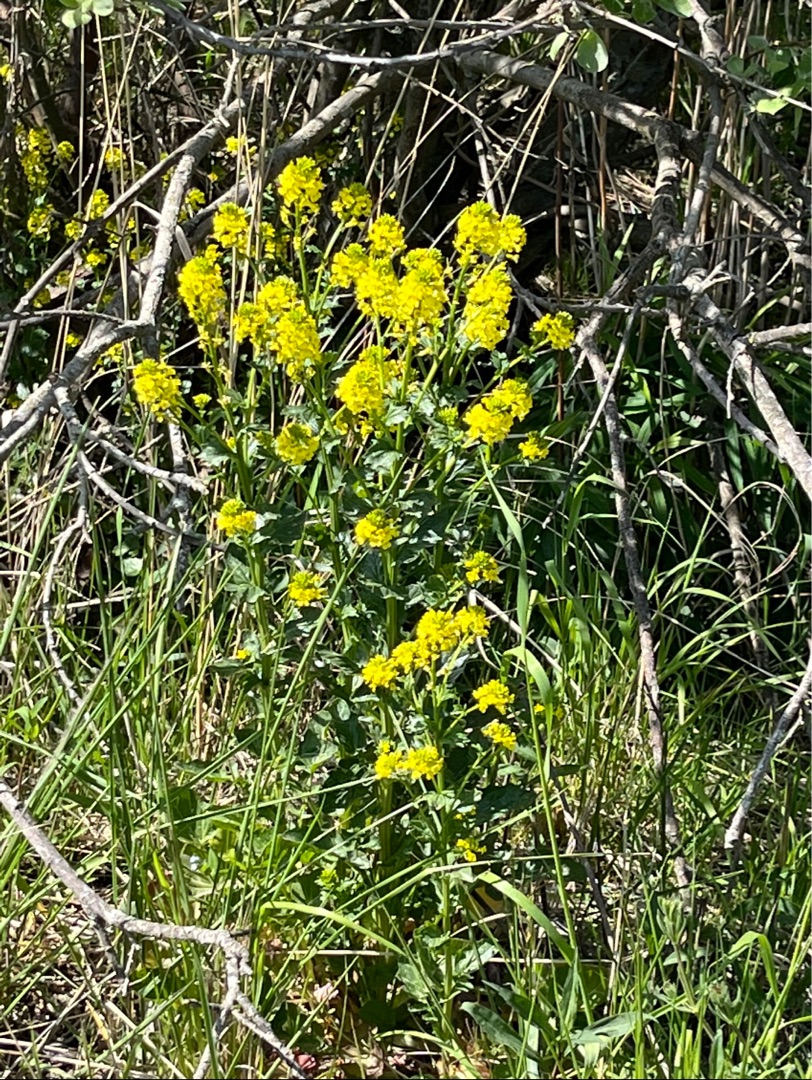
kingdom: Plantae
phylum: Tracheophyta
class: Magnoliopsida
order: Brassicales
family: Brassicaceae
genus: Barbarea
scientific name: Barbarea vulgaris
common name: Udspærret vinterkarse
